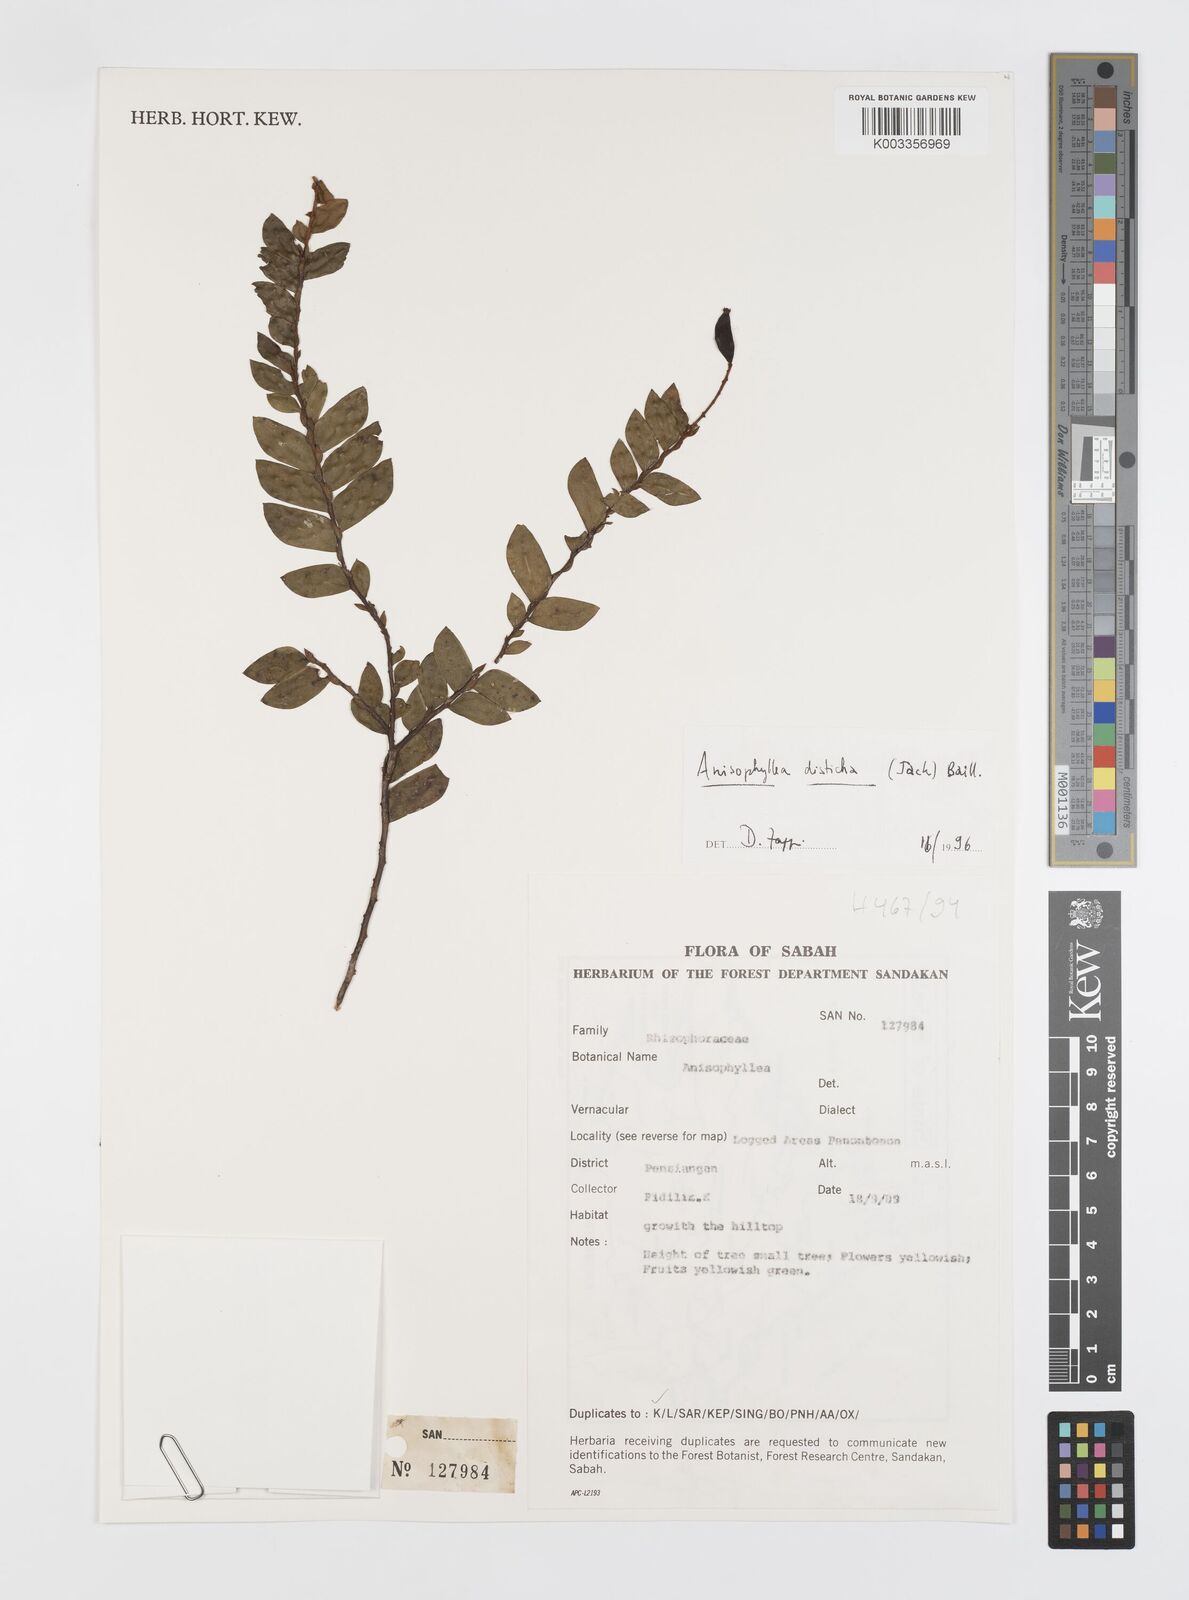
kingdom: Plantae
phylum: Tracheophyta
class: Magnoliopsida
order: Cucurbitales
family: Anisophylleaceae
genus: Anisophyllea
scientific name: Anisophyllea disticha
